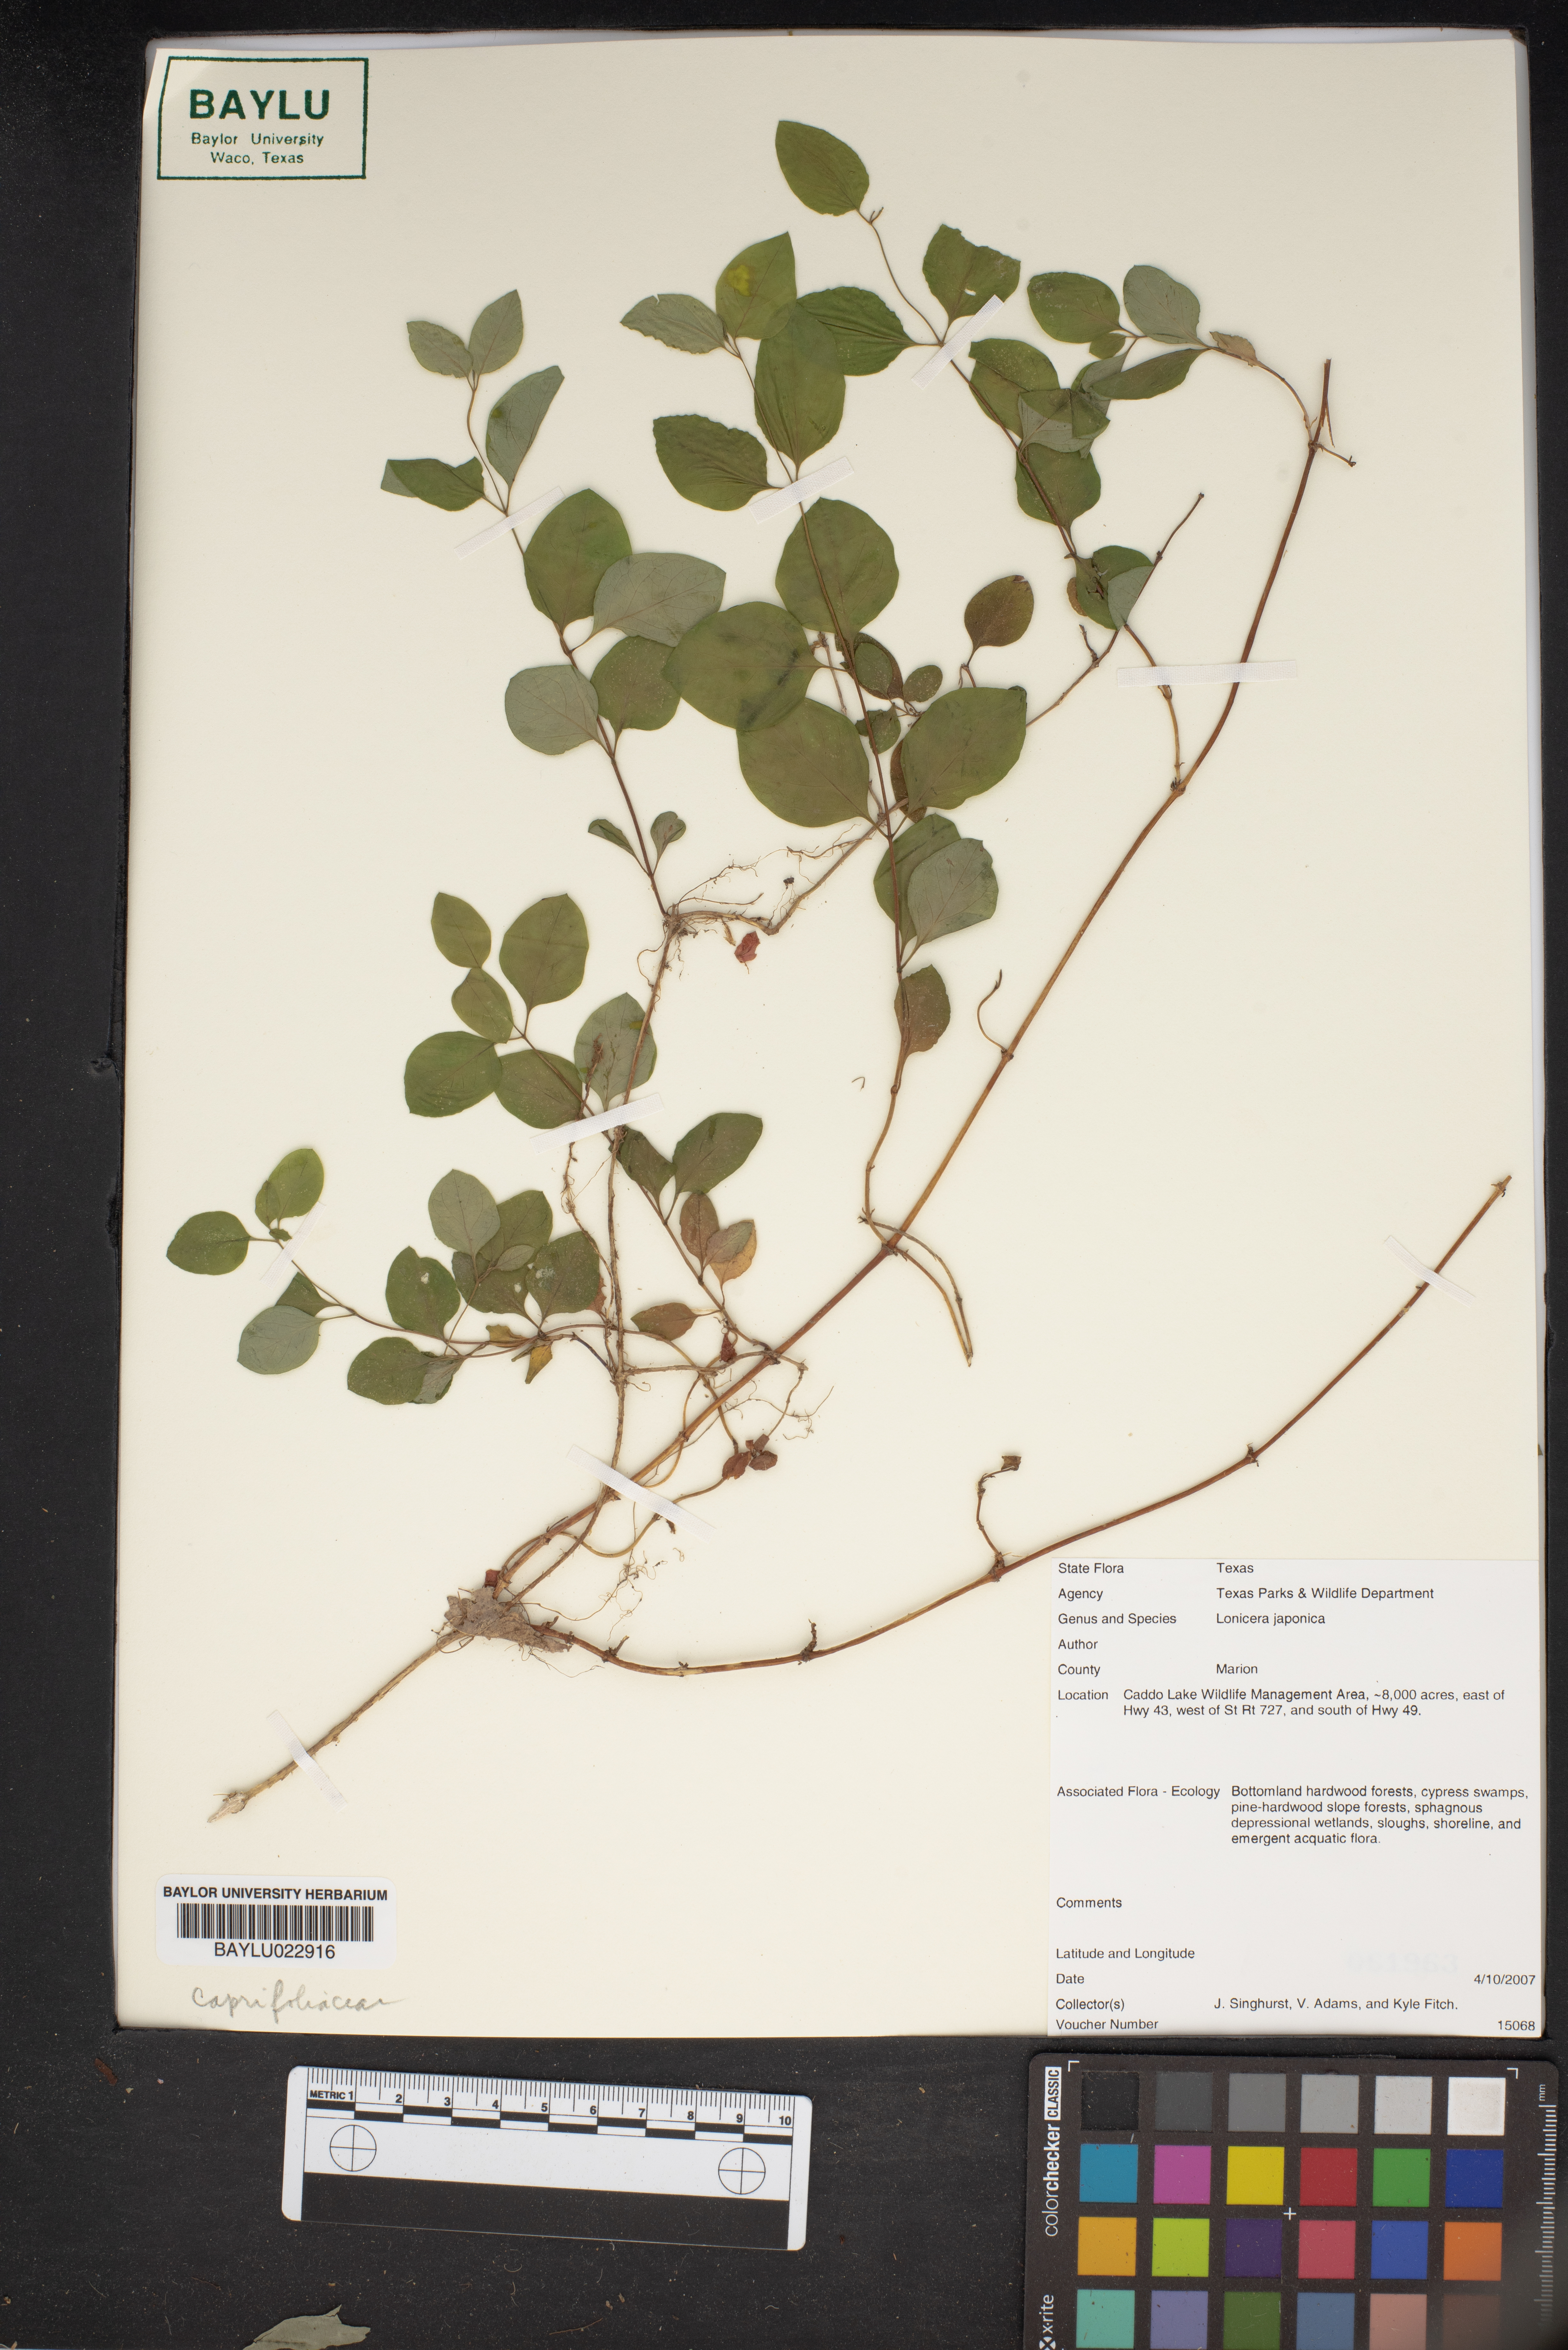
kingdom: Plantae
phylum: Tracheophyta
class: Magnoliopsida
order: Dipsacales
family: Caprifoliaceae
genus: Lonicera
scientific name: Lonicera japonica
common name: Japanese honeysuckle
